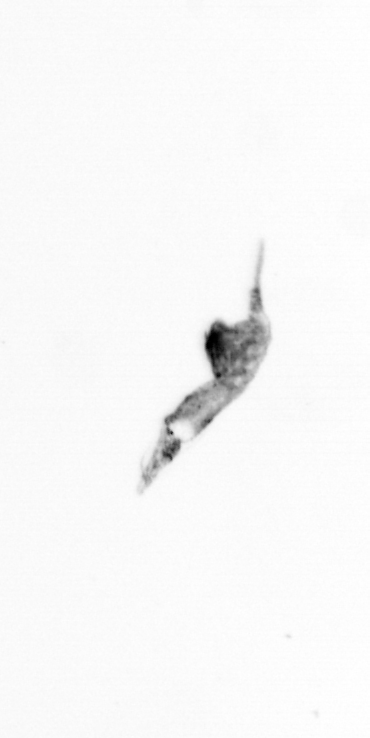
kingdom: Animalia
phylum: Arthropoda
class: Copepoda
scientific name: Copepoda
